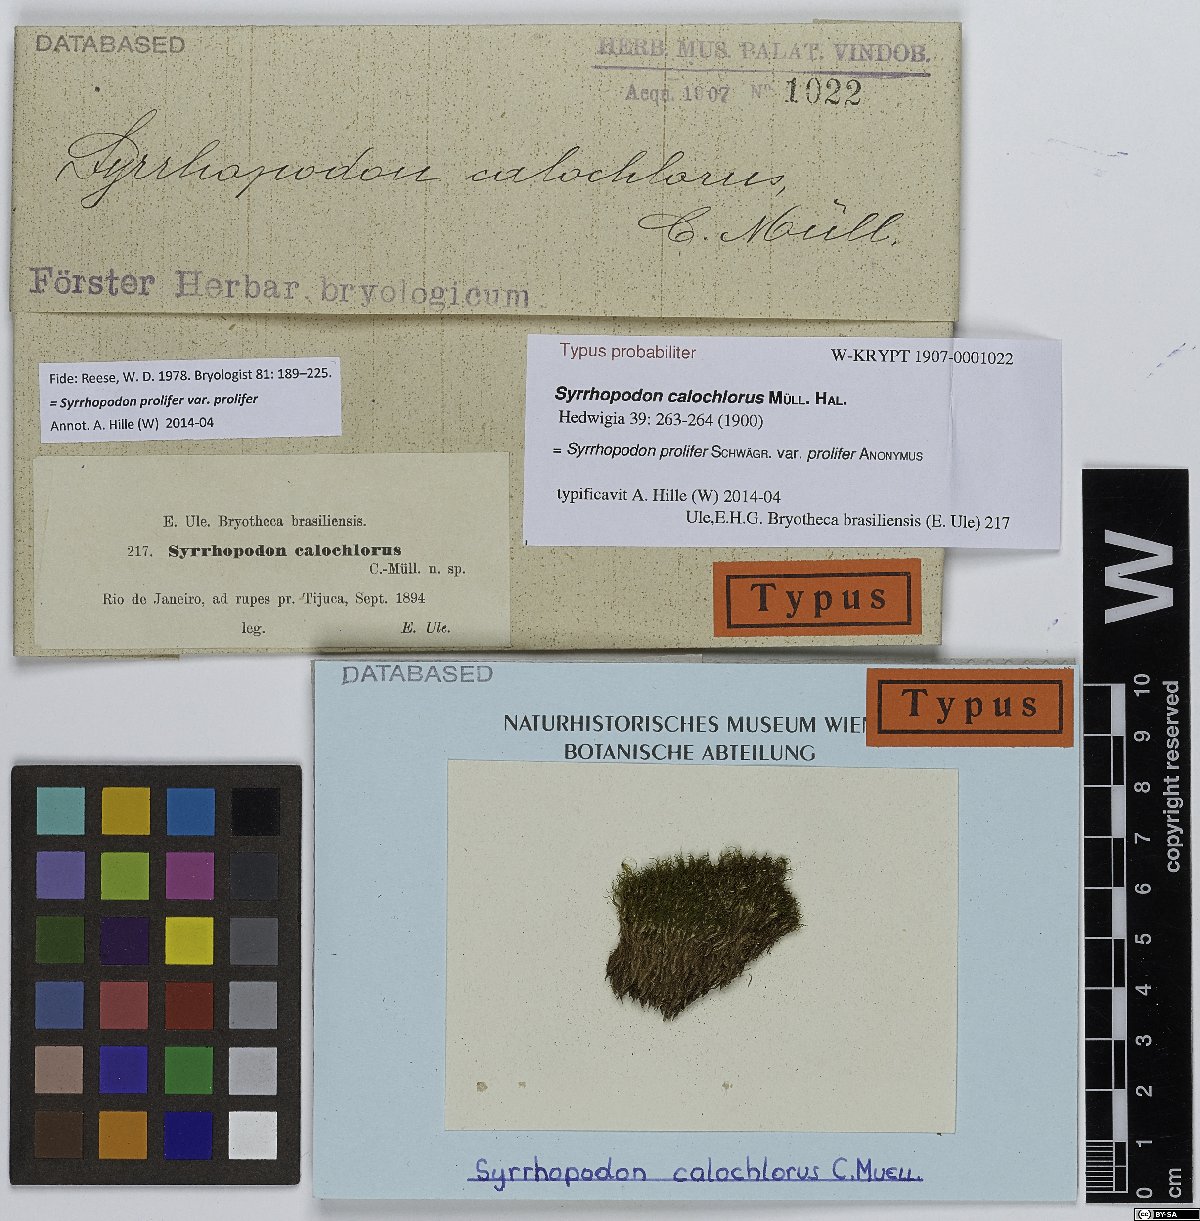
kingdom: Plantae
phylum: Bryophyta
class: Bryopsida
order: Dicranales
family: Calymperaceae
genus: Syrrhopodon
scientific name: Syrrhopodon prolifer
